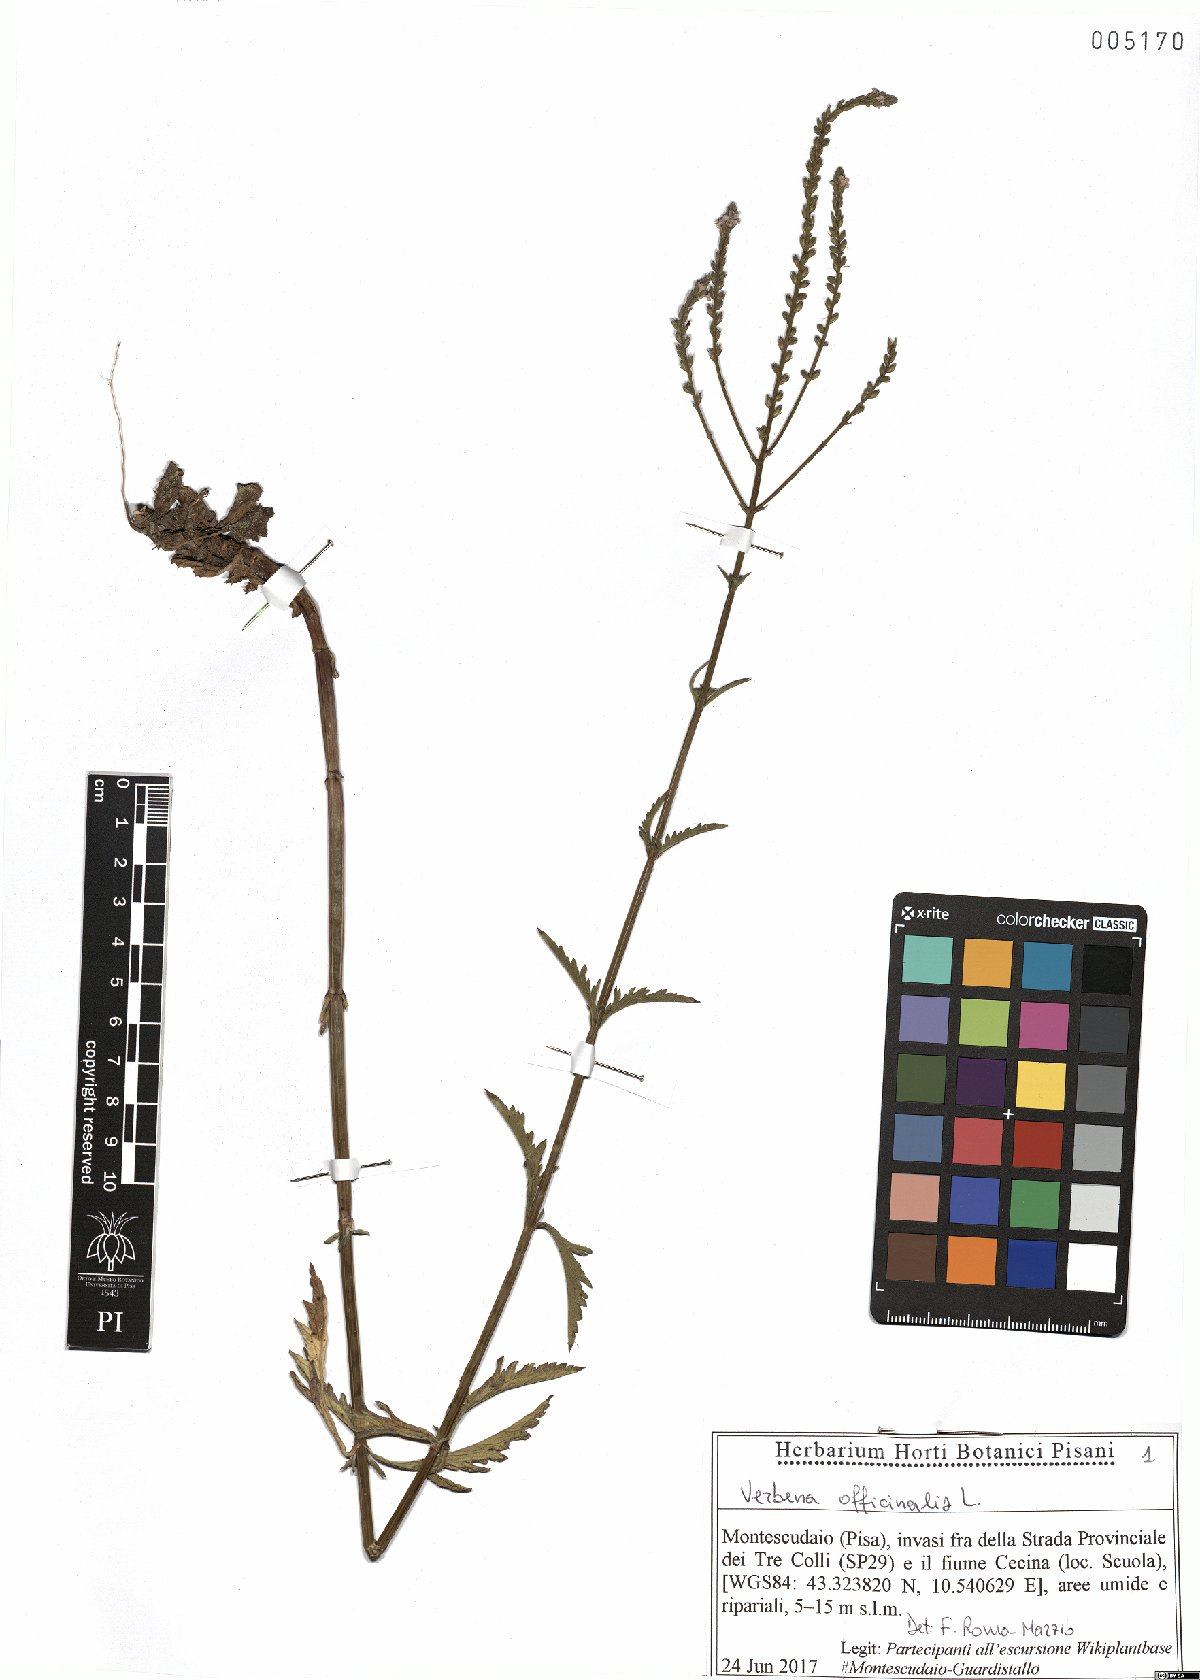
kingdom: Plantae
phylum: Tracheophyta
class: Magnoliopsida
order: Lamiales
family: Verbenaceae
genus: Verbena
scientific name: Verbena officinalis
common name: Vervain
